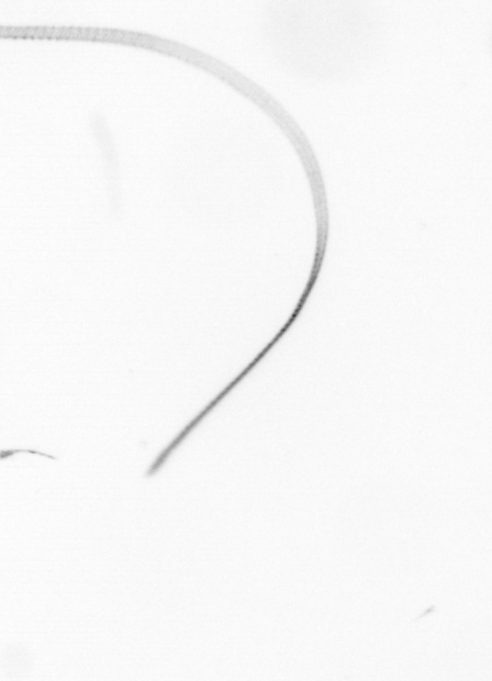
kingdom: Chromista
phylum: Ochrophyta
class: Bacillariophyceae
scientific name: Bacillariophyceae
